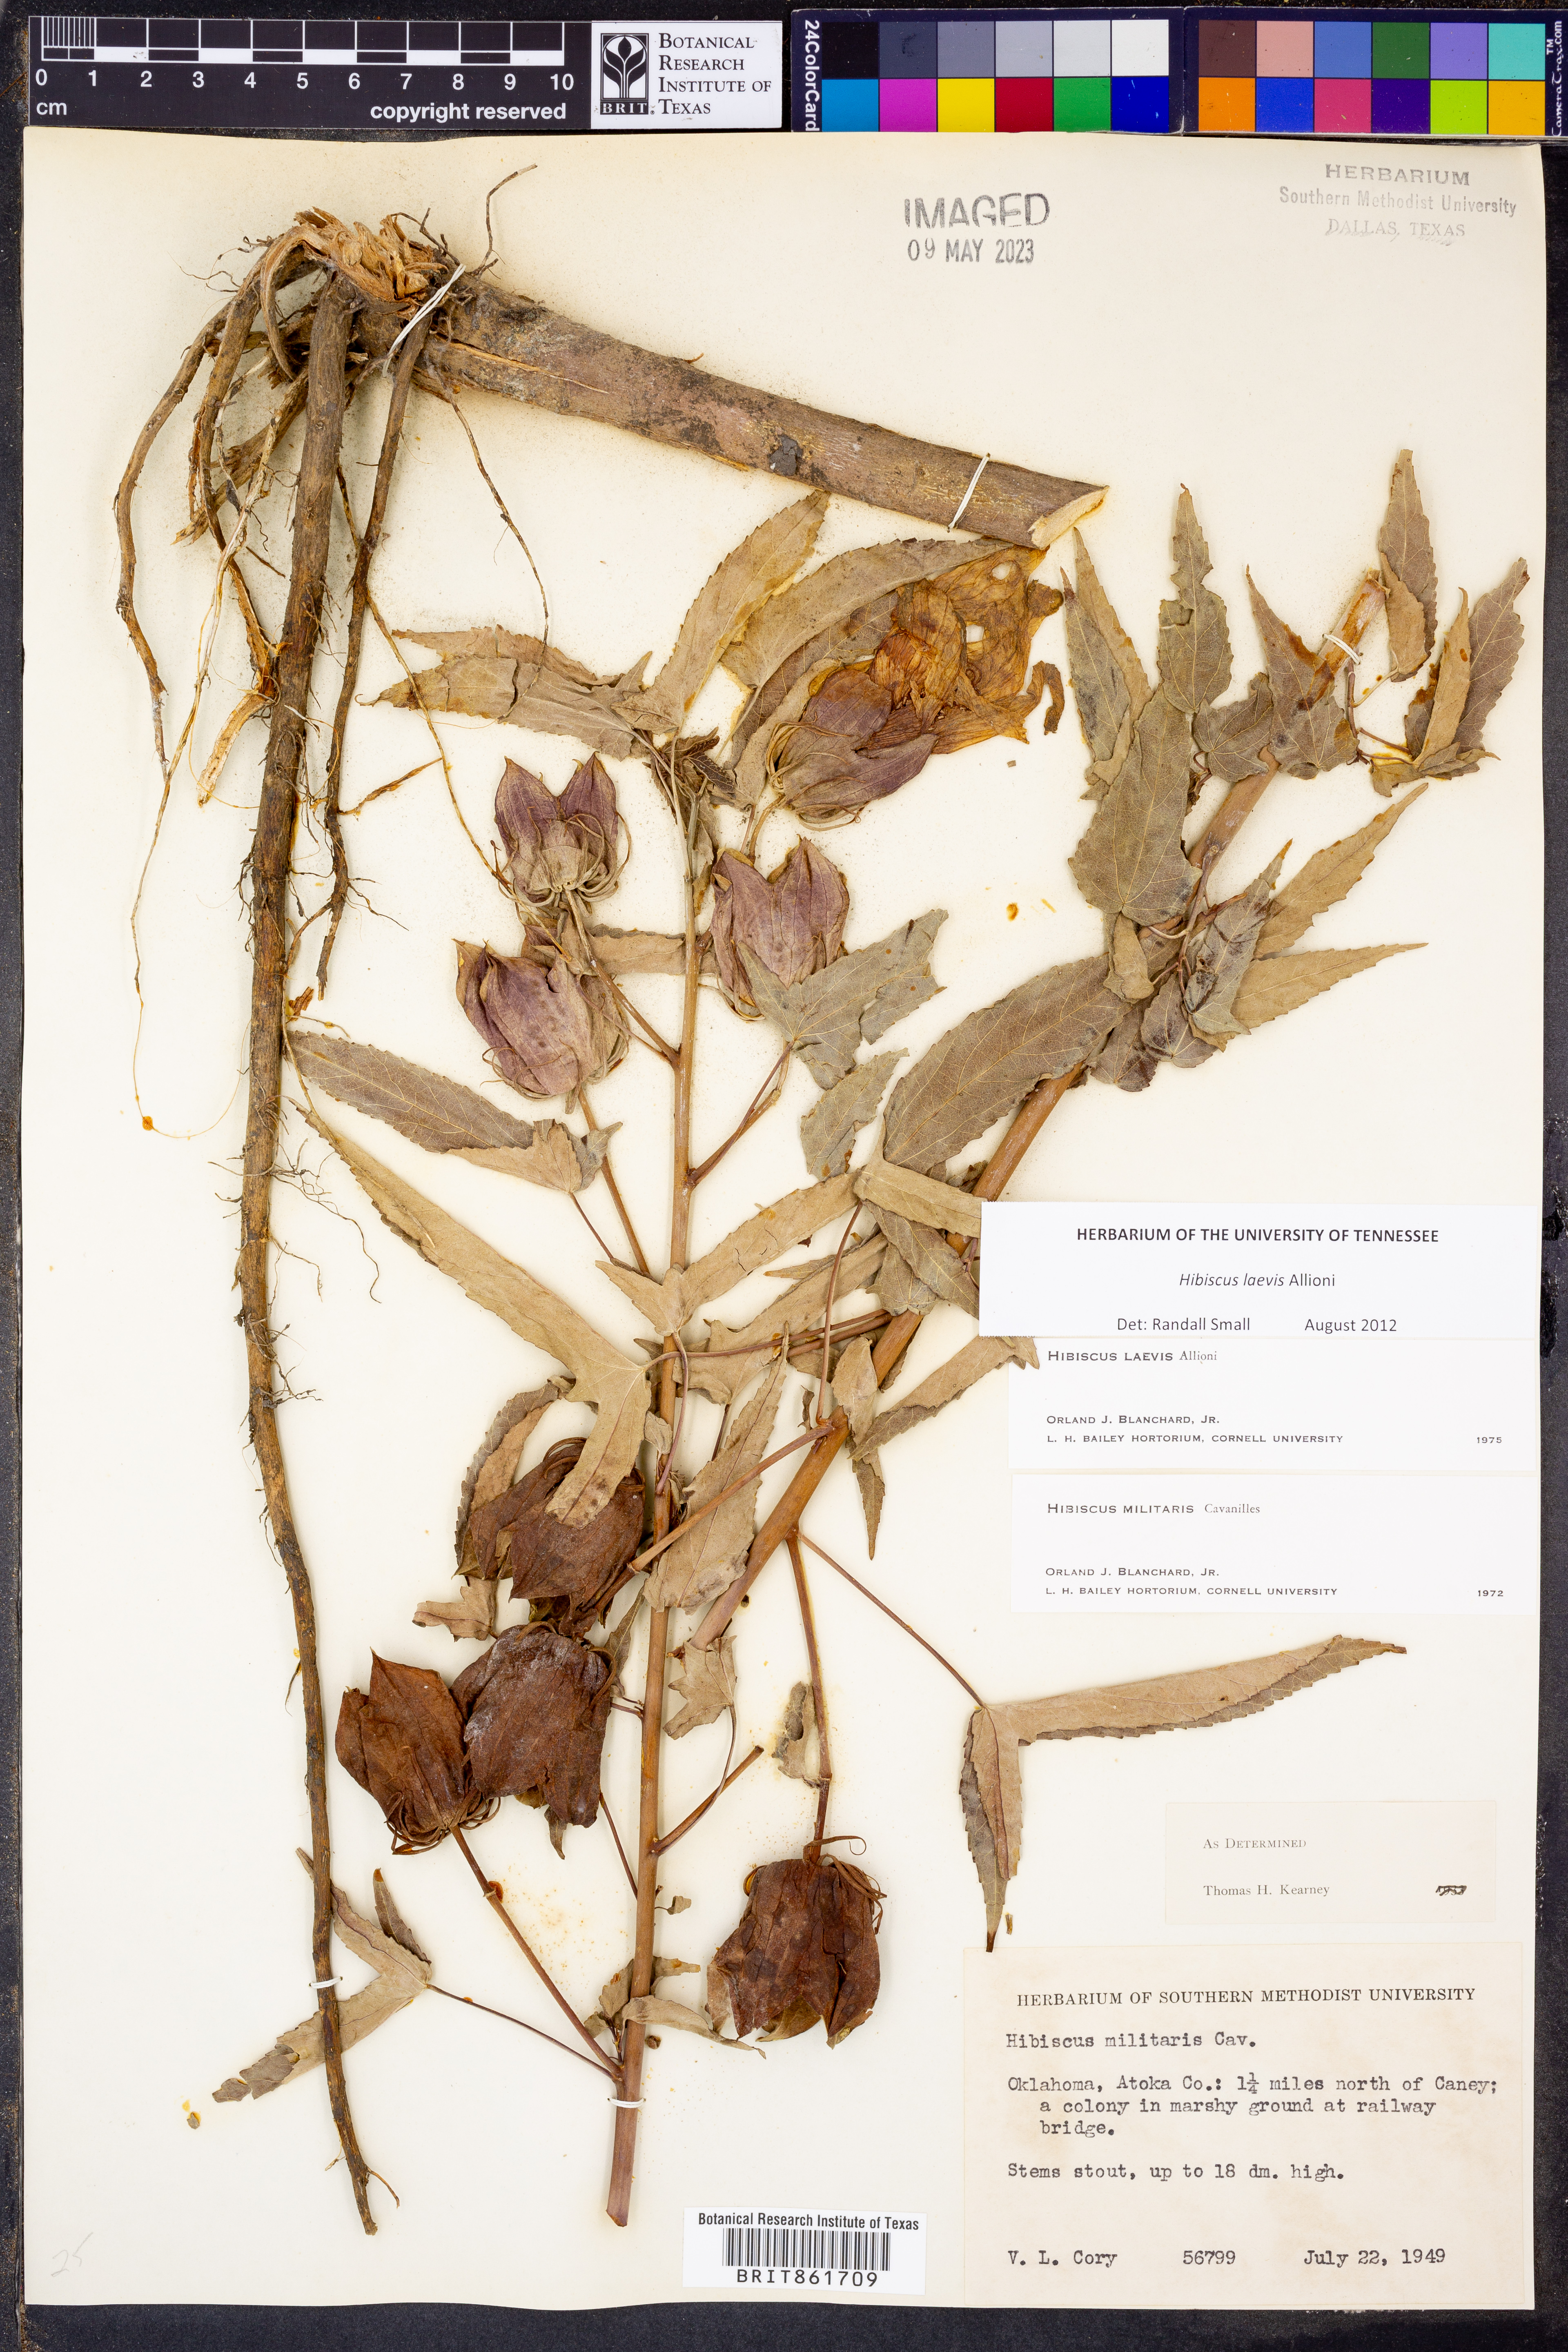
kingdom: Plantae
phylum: Tracheophyta
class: Magnoliopsida
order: Malvales
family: Malvaceae
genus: Hibiscus
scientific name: Hibiscus laevis
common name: Scarlet rose-mallow
